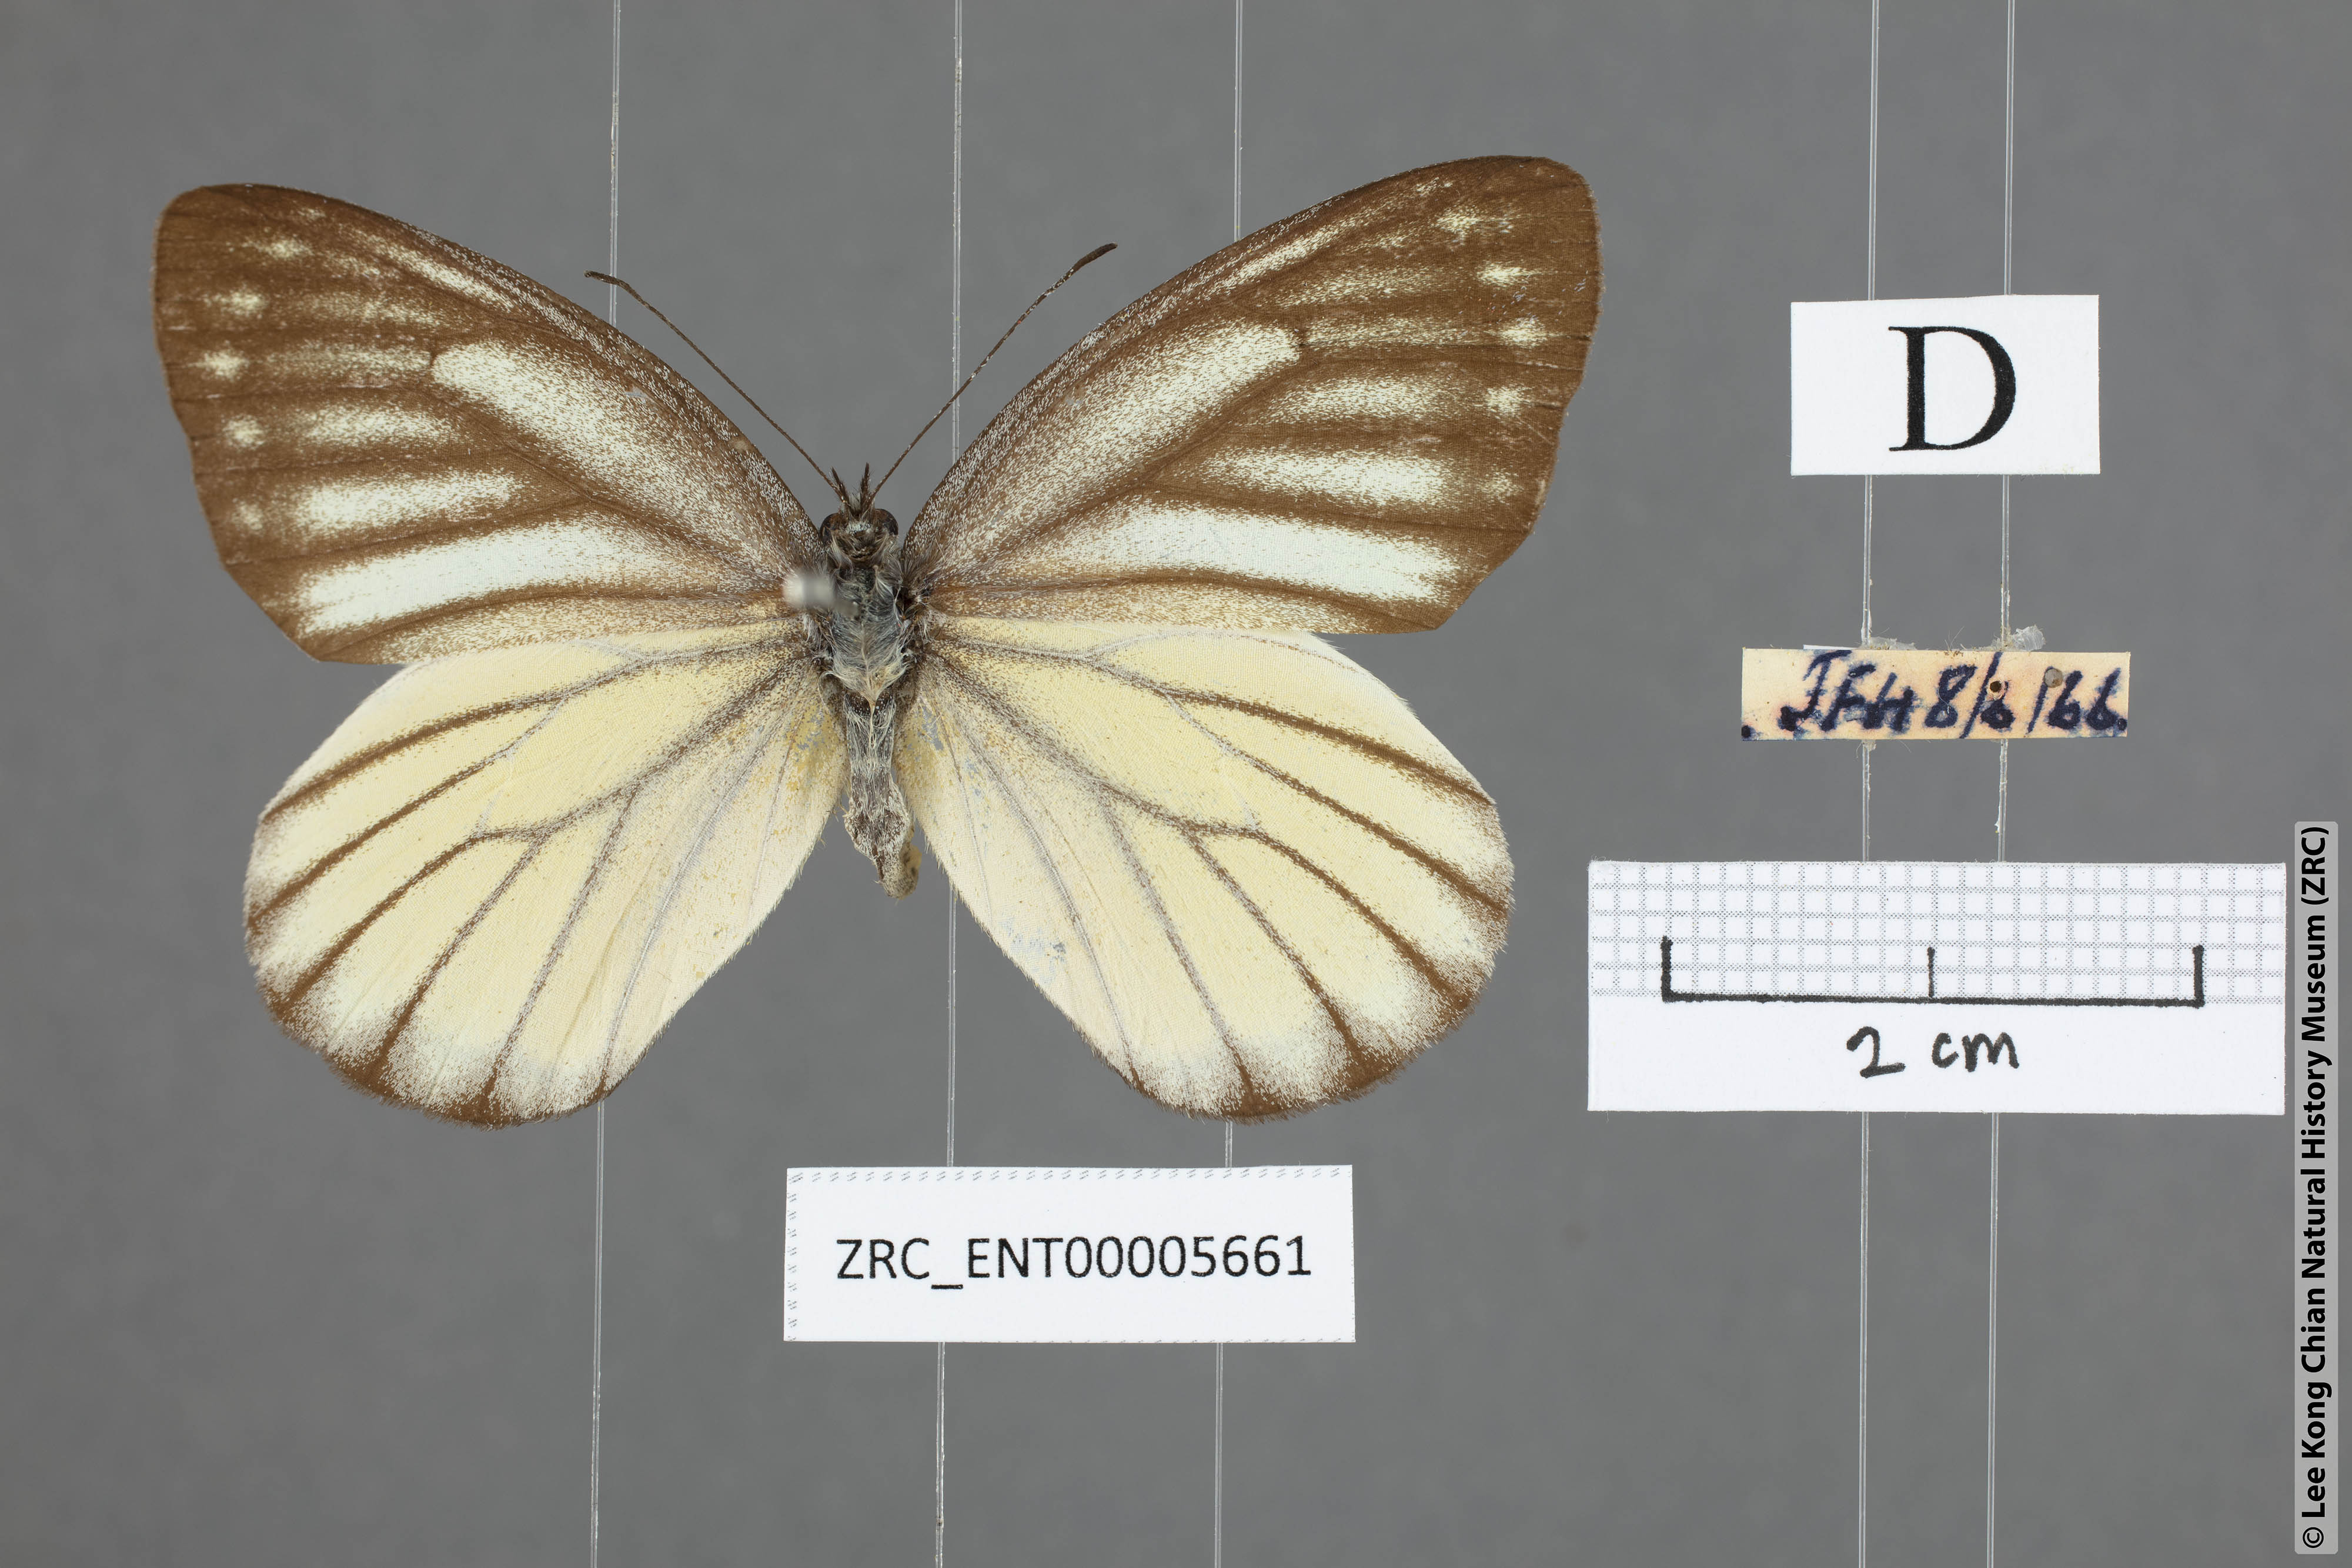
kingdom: Animalia
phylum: Arthropoda
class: Insecta
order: Lepidoptera
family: Pieridae
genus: Delias
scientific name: Delias baracasa
